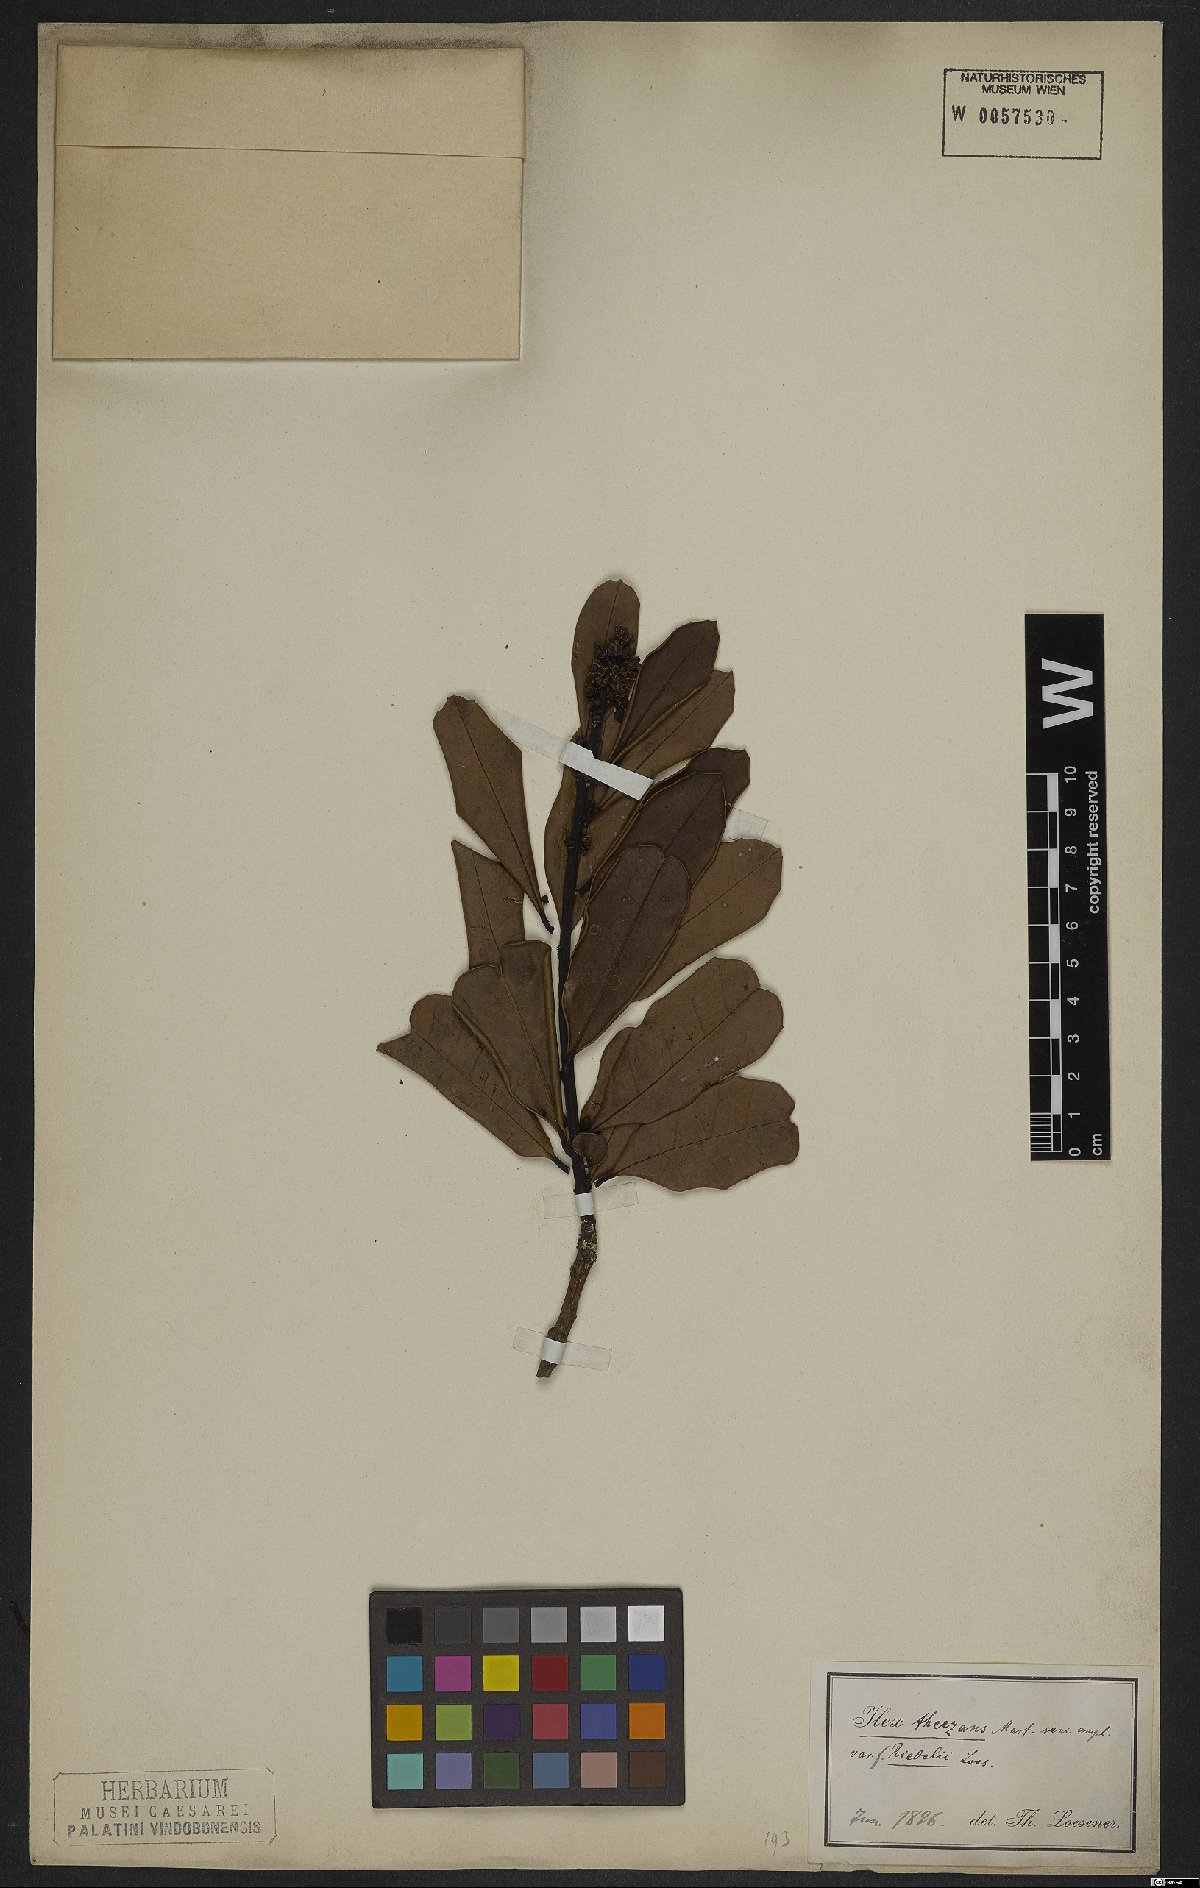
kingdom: Plantae
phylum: Tracheophyta
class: Magnoliopsida
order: Aquifoliales
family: Aquifoliaceae
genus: Ilex
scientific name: Ilex theezans
